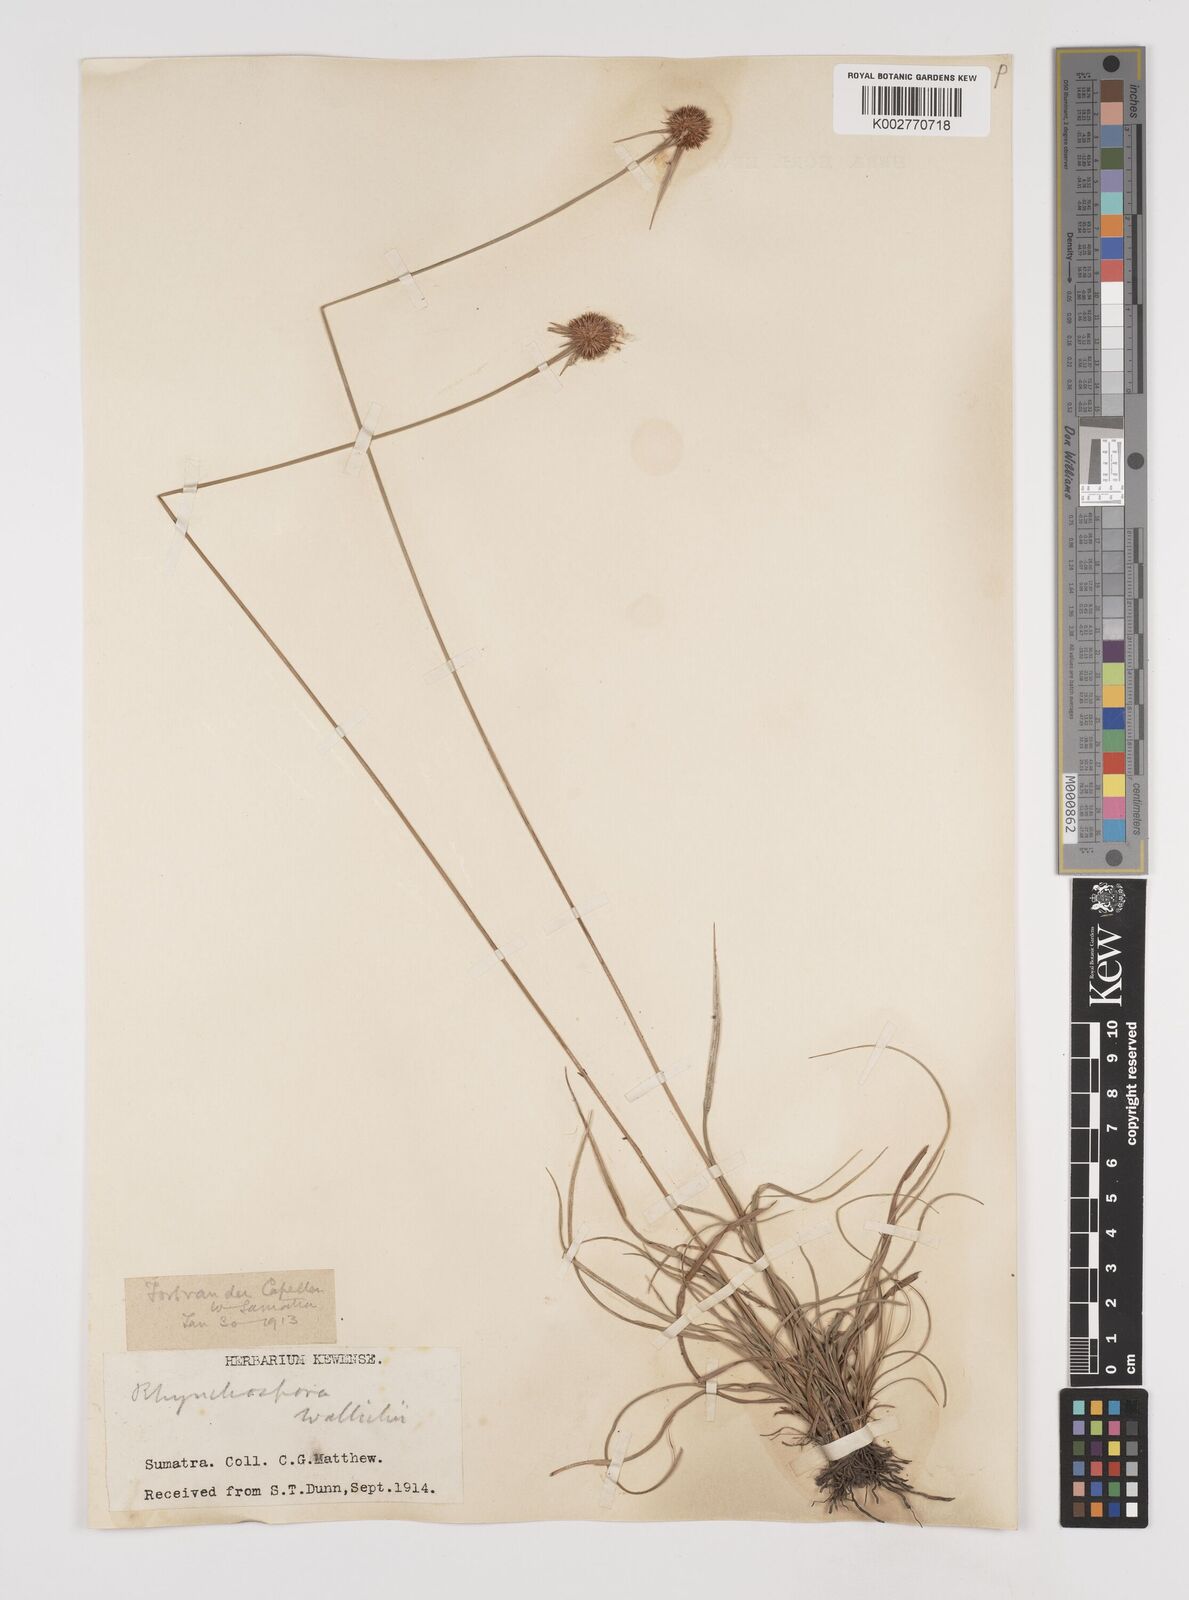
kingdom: Plantae
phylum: Tracheophyta
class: Liliopsida
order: Poales
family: Cyperaceae
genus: Rhynchospora
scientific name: Rhynchospora rubra
